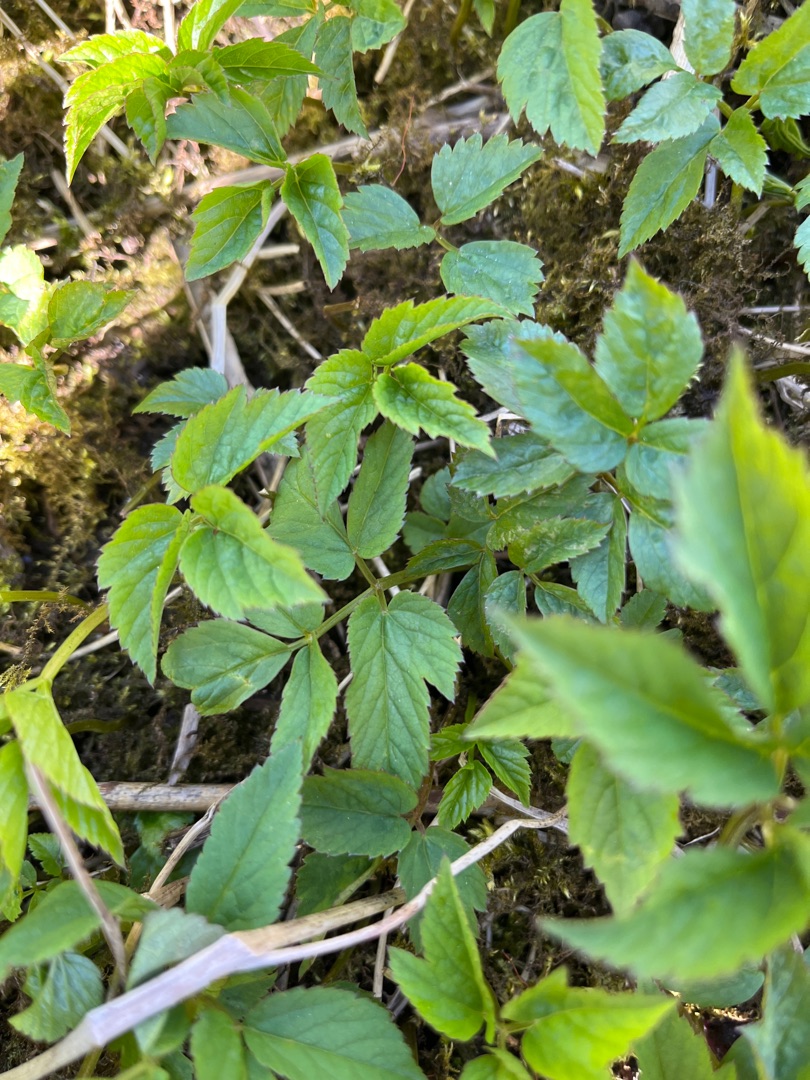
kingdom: Plantae
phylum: Tracheophyta
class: Magnoliopsida
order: Apiales
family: Apiaceae
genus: Aegopodium
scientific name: Aegopodium podagraria
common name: Skvalderkål
